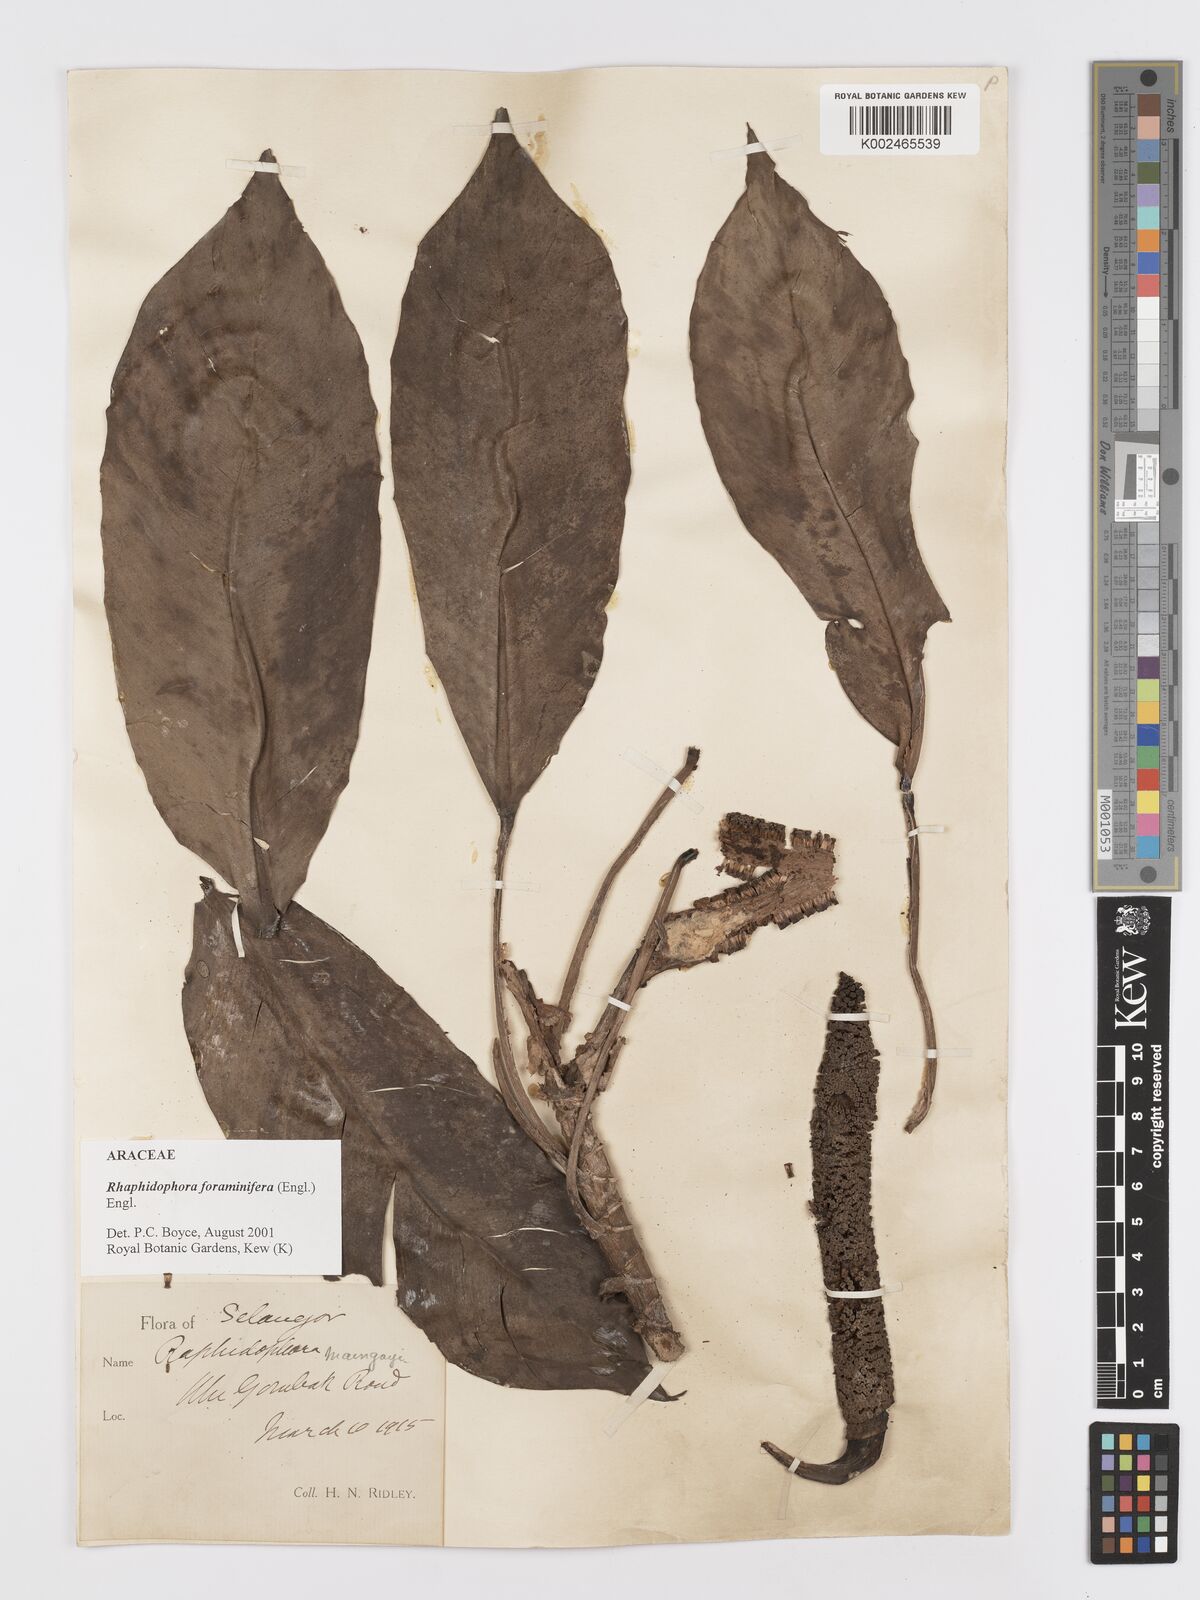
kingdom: Plantae
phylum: Tracheophyta
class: Liliopsida
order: Alismatales
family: Araceae
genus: Rhaphidophora
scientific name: Rhaphidophora foraminifera
